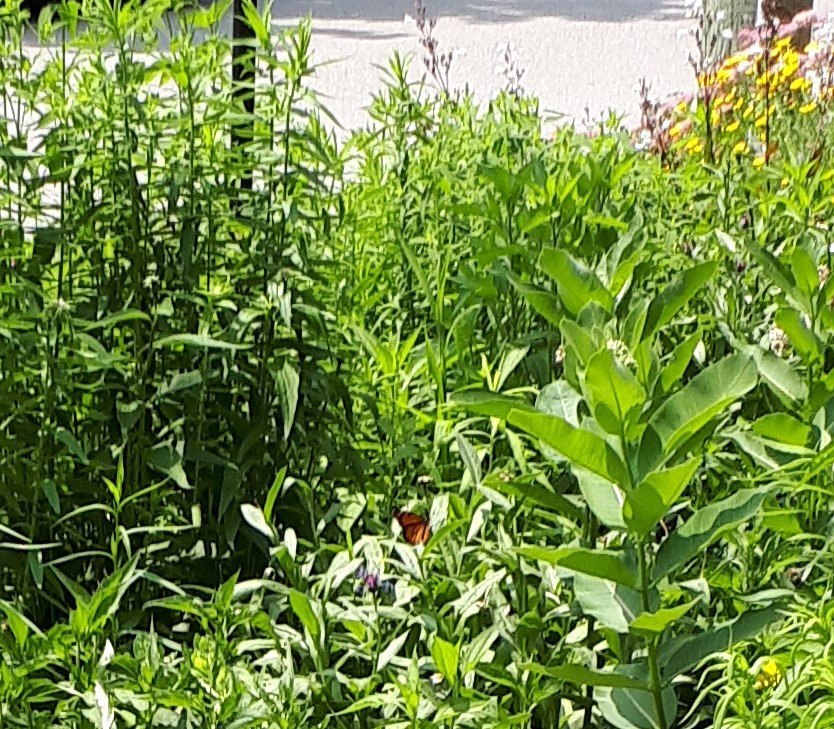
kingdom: Animalia
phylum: Arthropoda
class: Insecta
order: Lepidoptera
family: Nymphalidae
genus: Danaus
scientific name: Danaus plexippus
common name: Monarch
